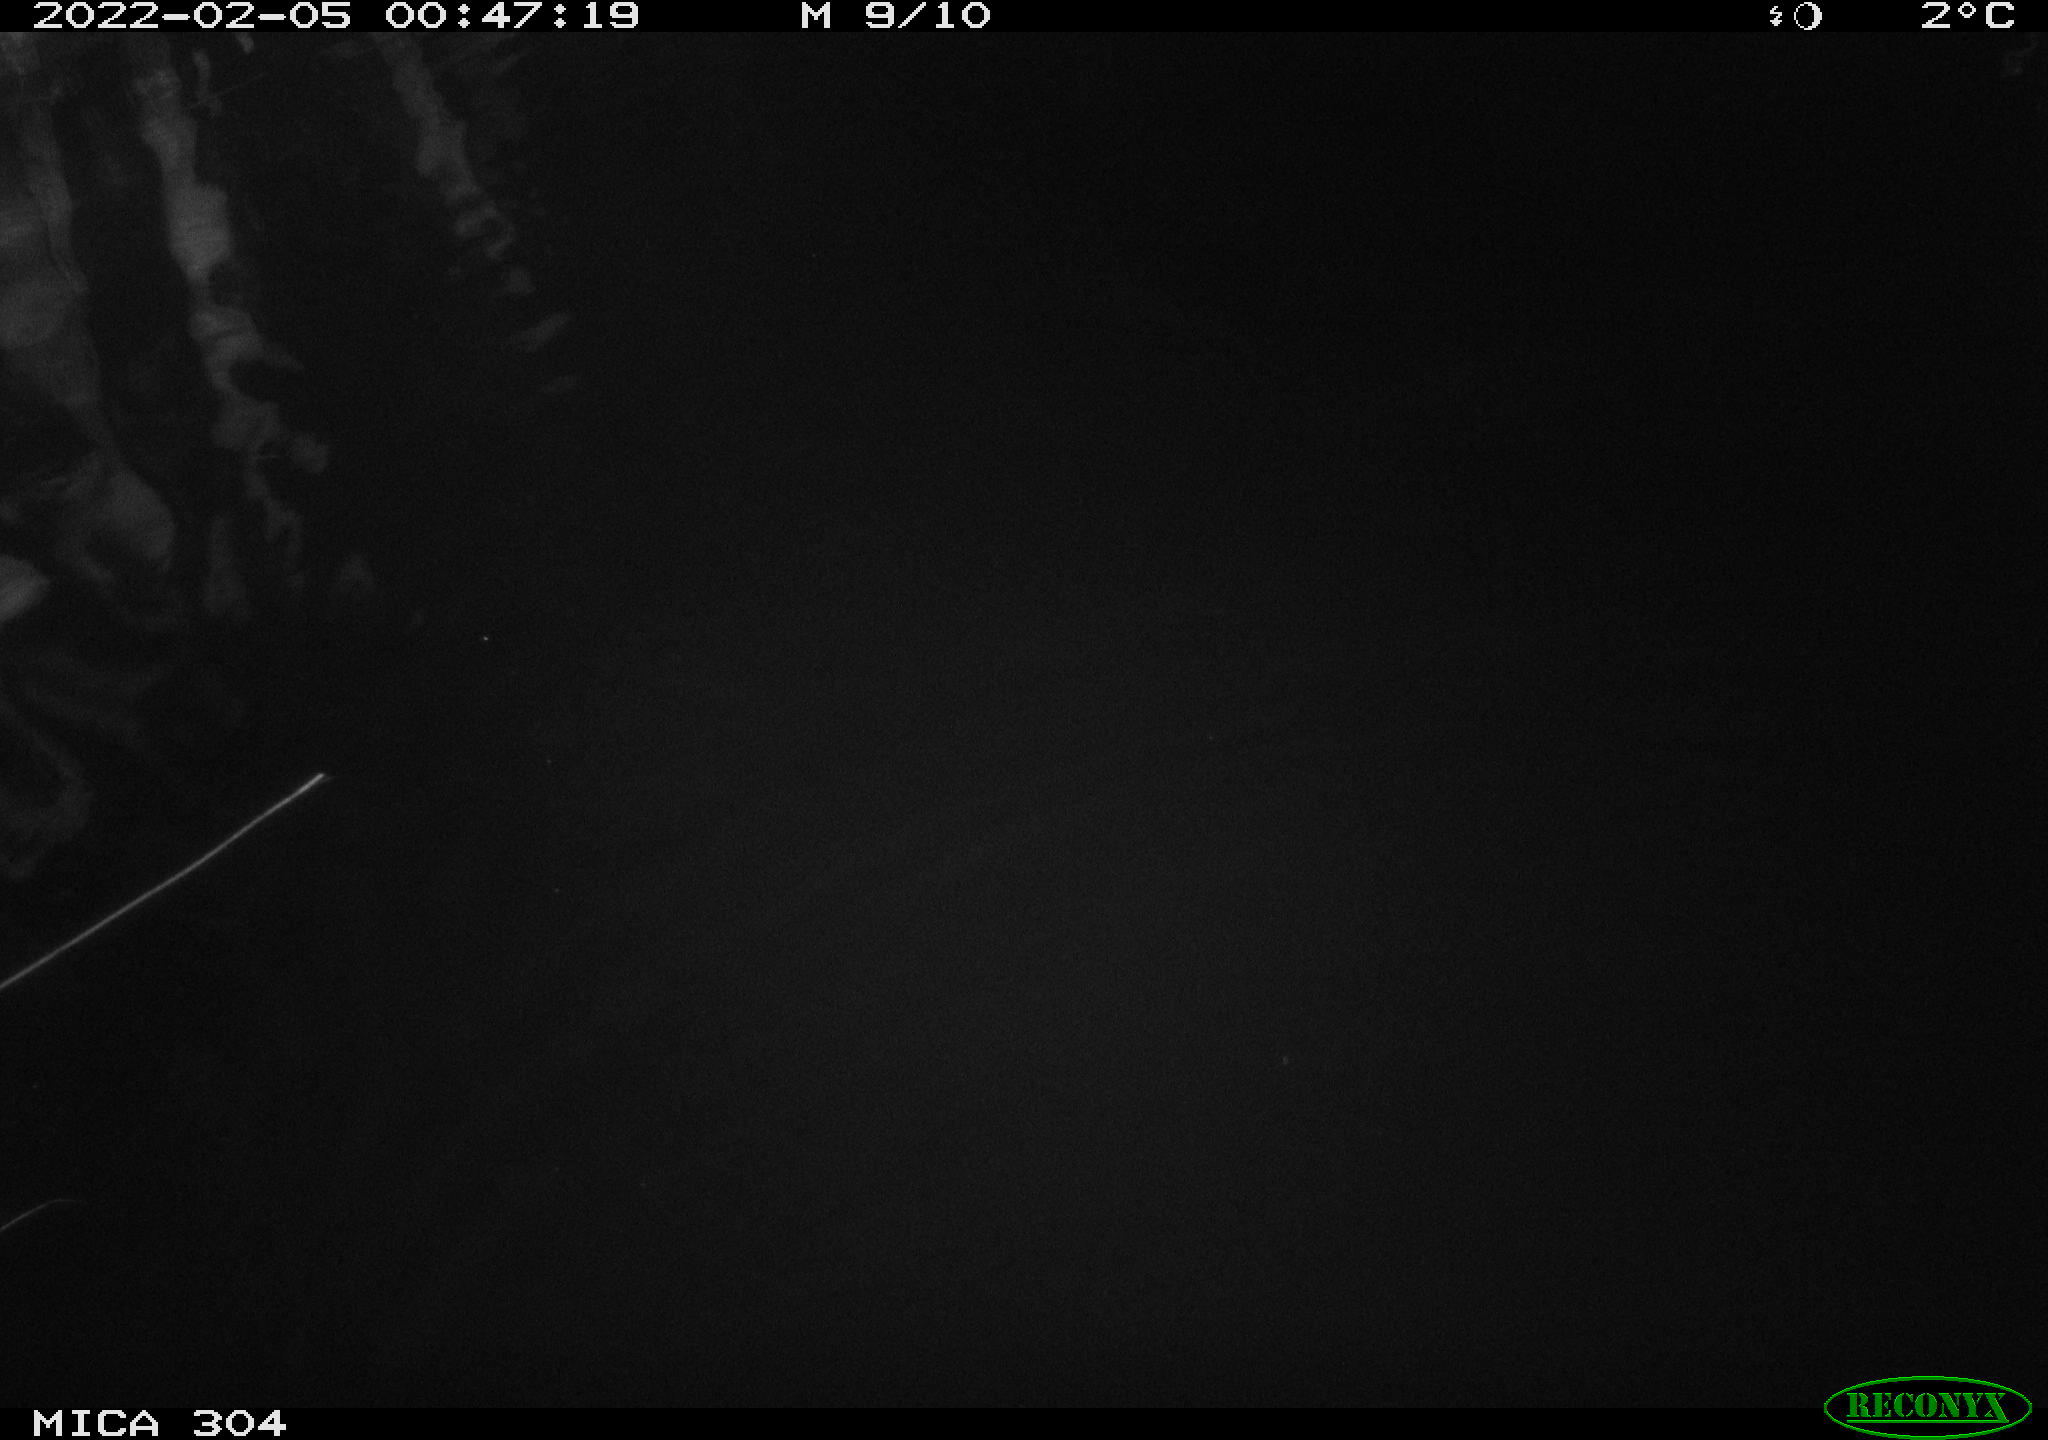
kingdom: Animalia
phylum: Chordata
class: Mammalia
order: Rodentia
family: Cricetidae
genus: Ondatra
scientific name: Ondatra zibethicus
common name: Muskrat
